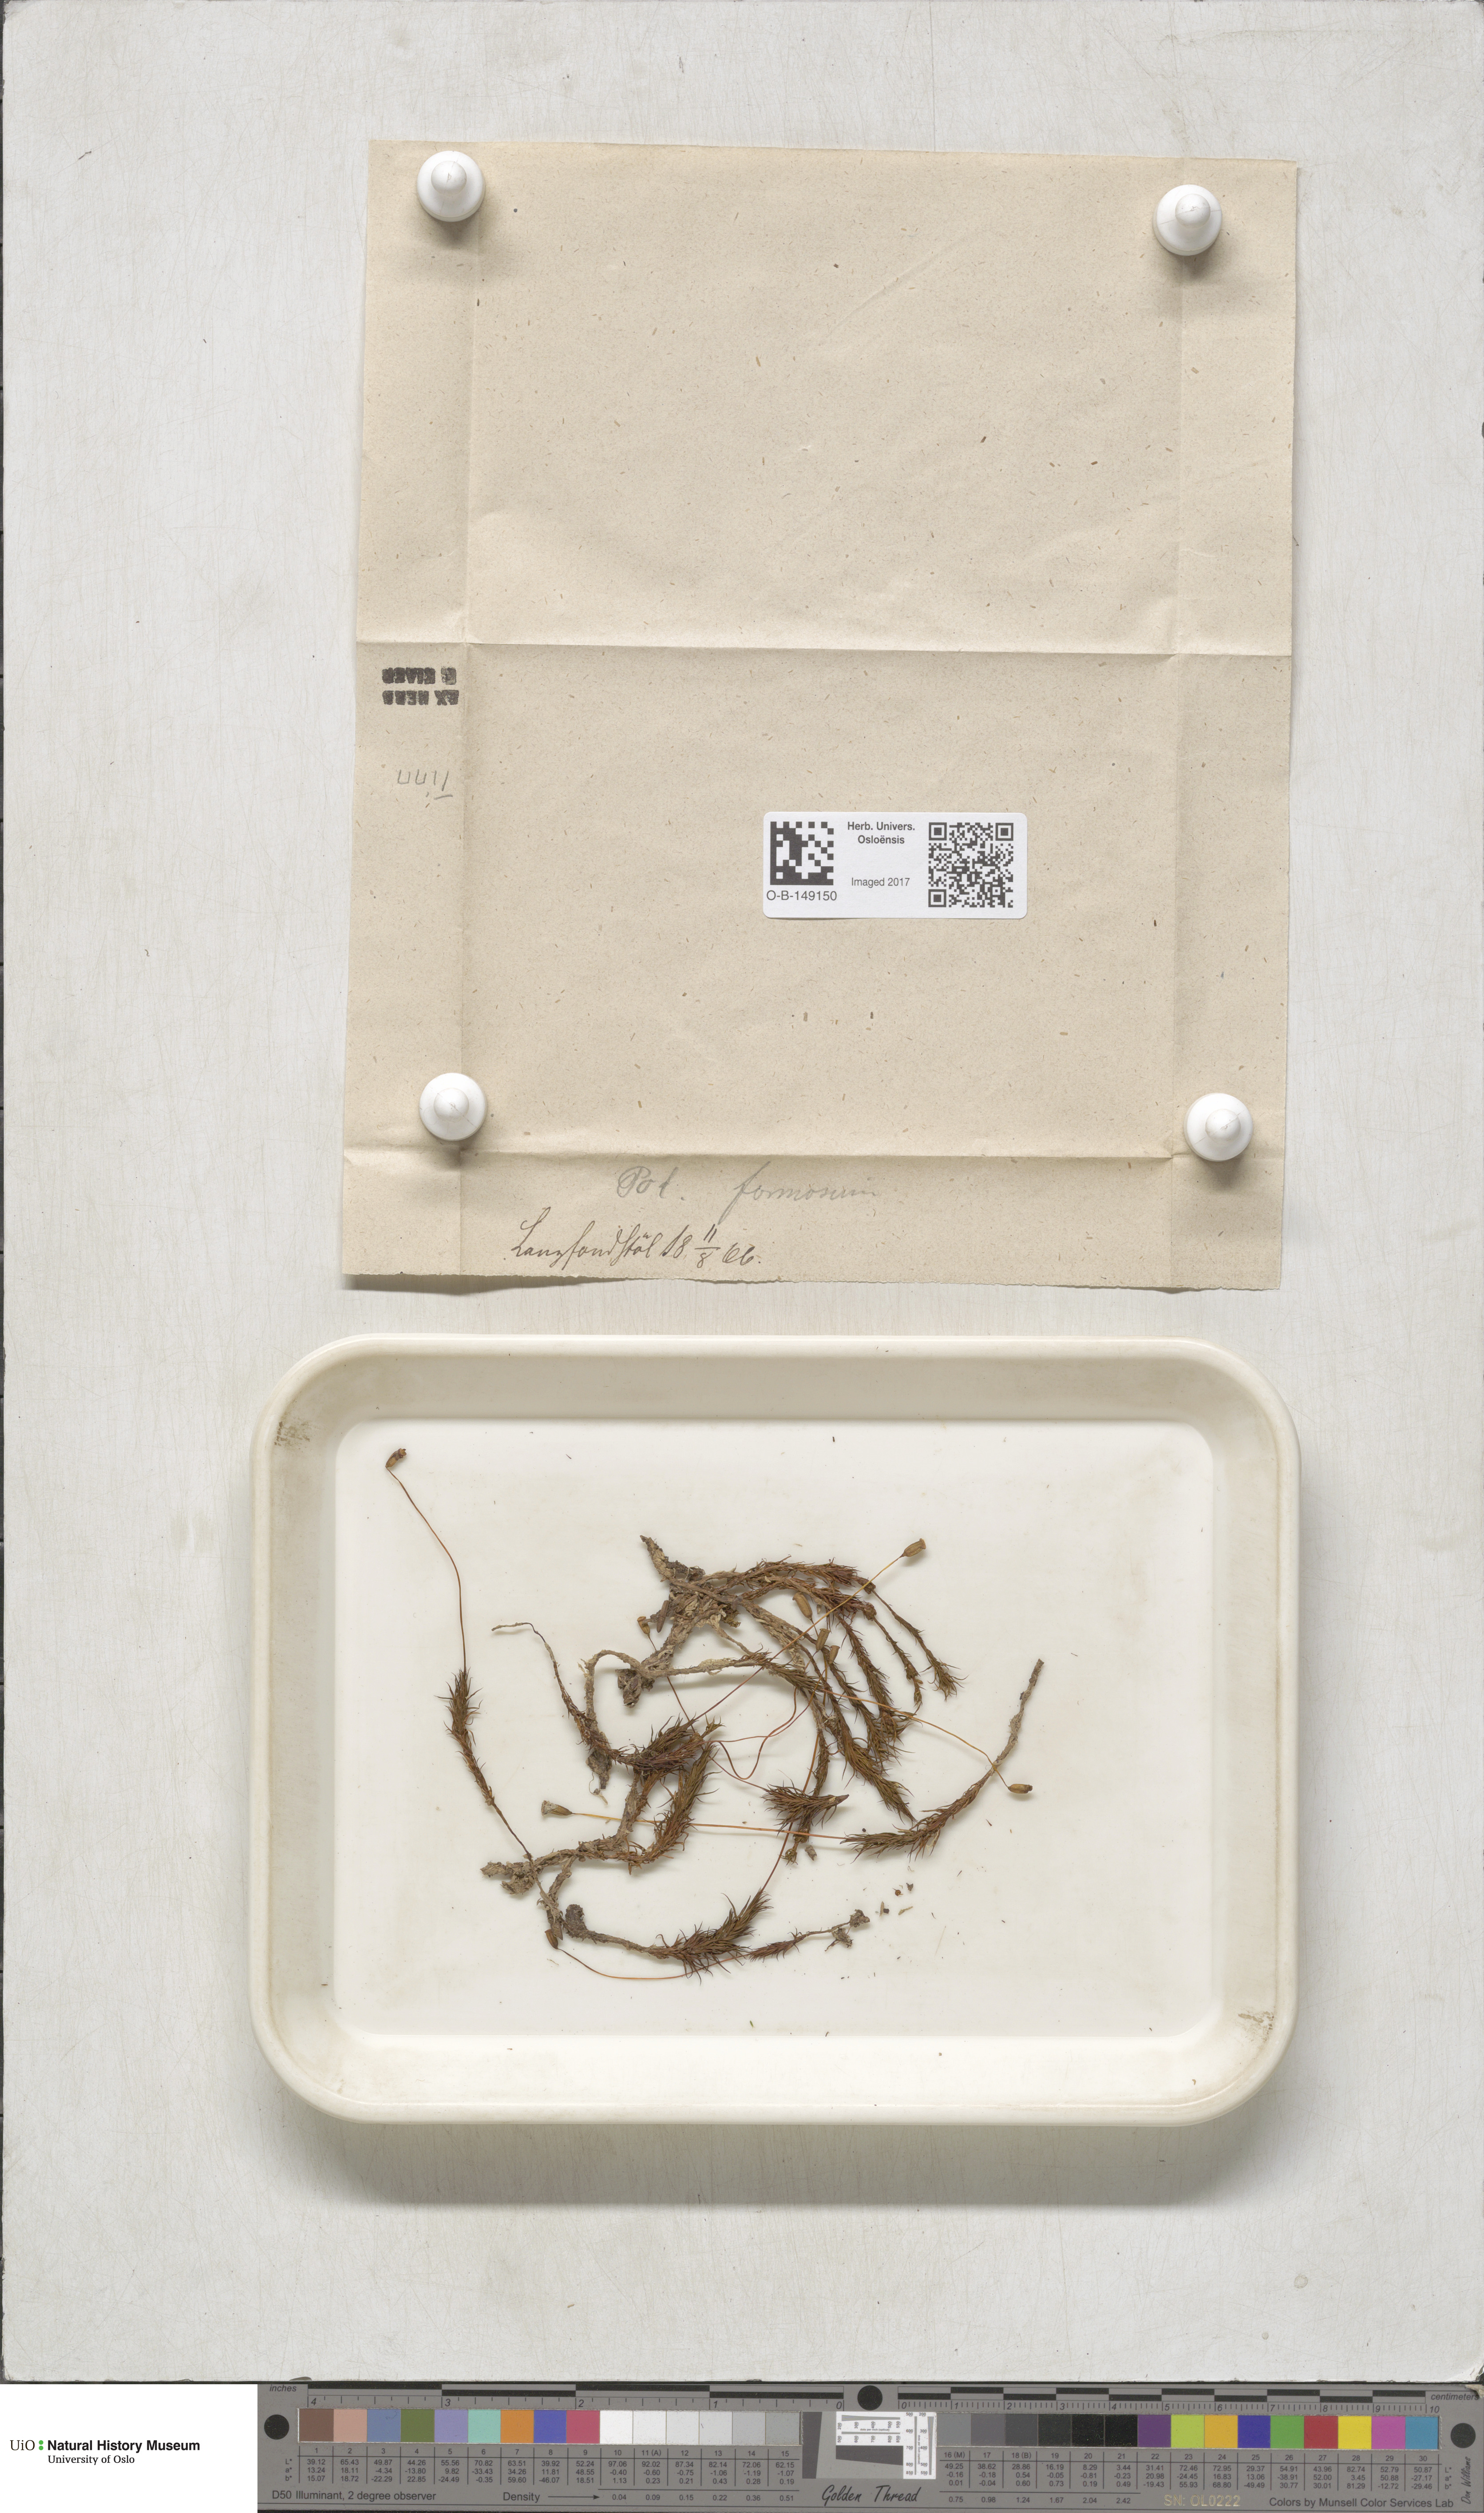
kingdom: Plantae
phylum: Bryophyta
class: Polytrichopsida
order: Polytrichales
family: Polytrichaceae
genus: Polytrichum
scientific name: Polytrichum formosum
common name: Bank haircap moss
